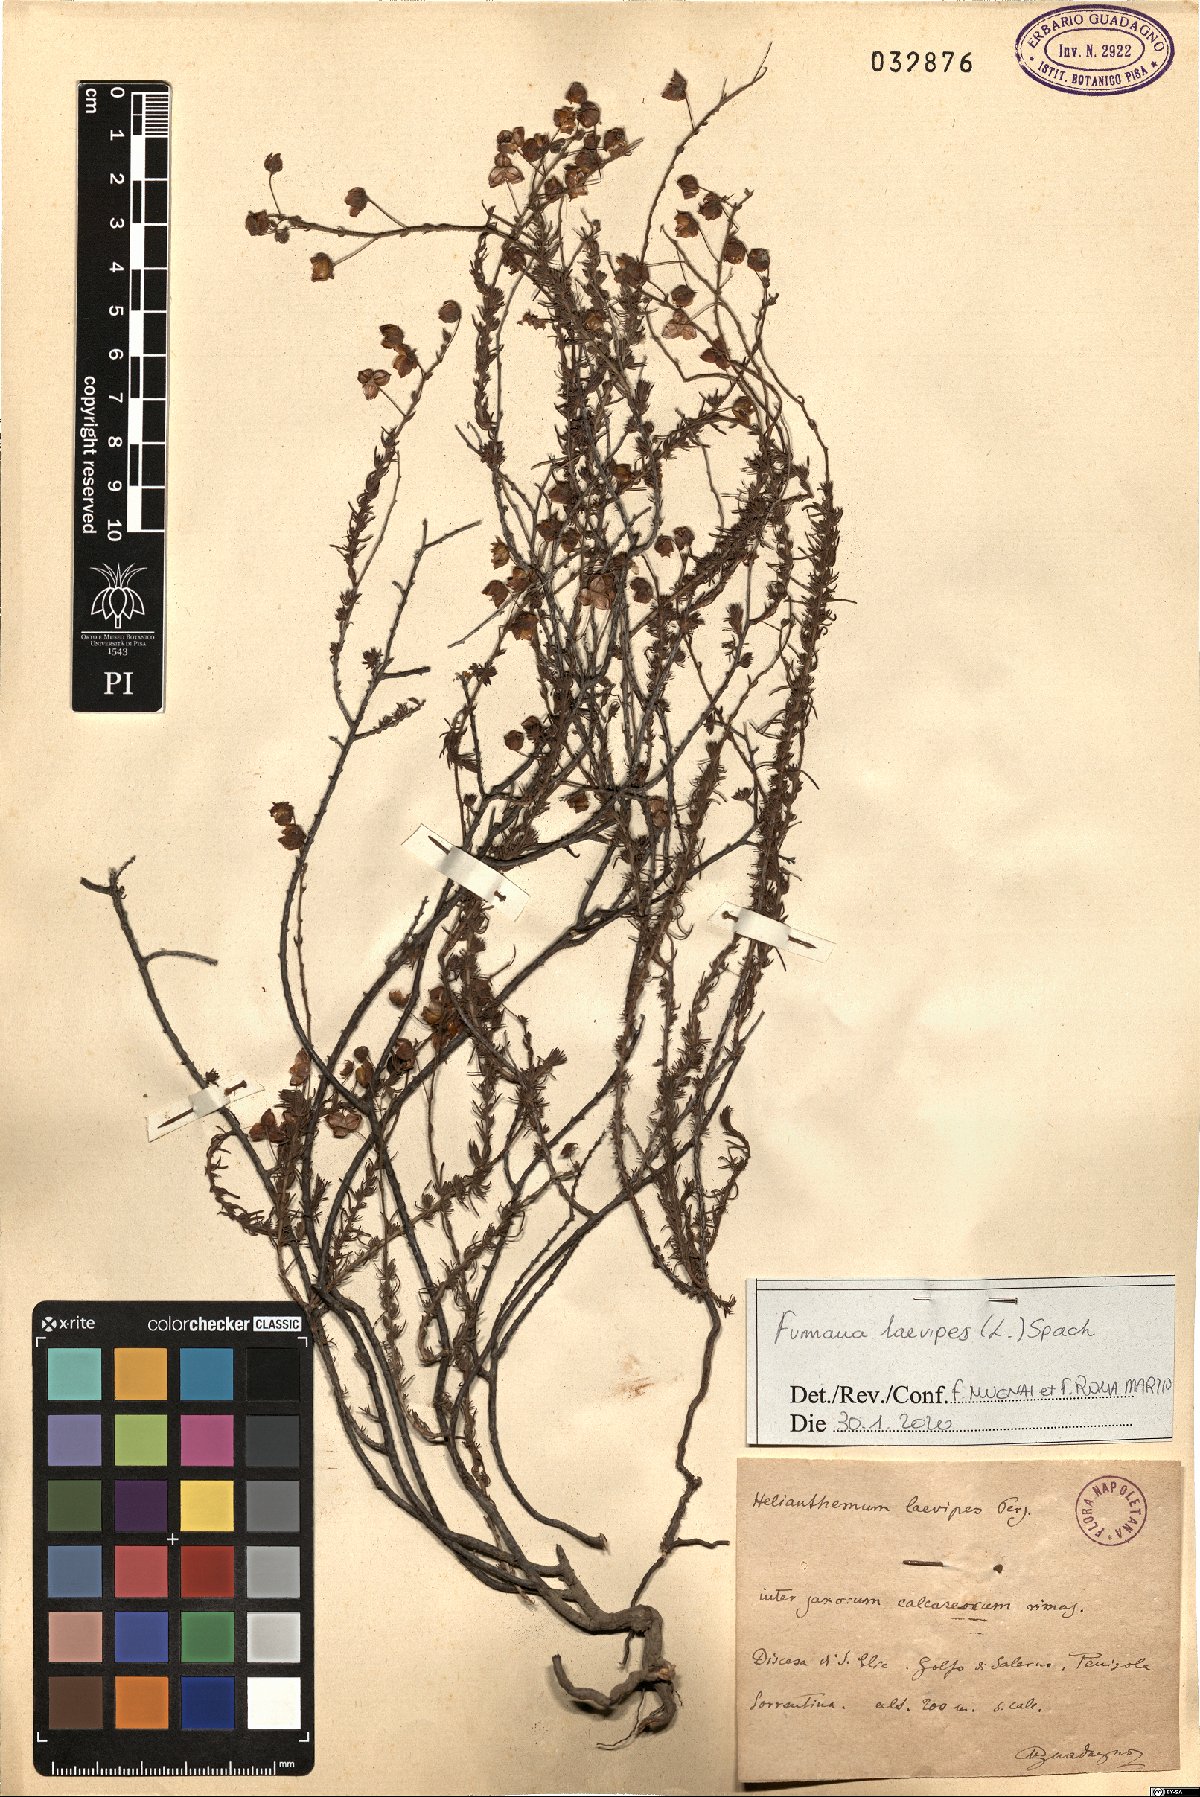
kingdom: Plantae
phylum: Tracheophyta
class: Magnoliopsida
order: Malvales
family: Cistaceae
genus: Fumana
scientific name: Fumana laevipes
